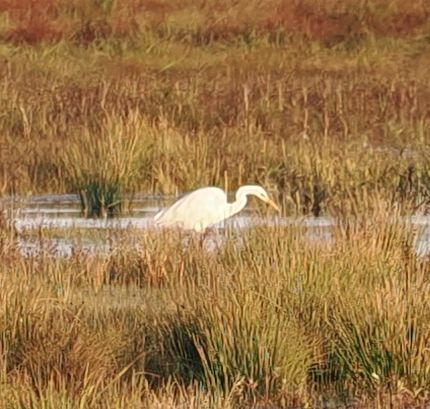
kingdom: Animalia
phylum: Chordata
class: Aves
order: Pelecaniformes
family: Ardeidae
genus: Ardea
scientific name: Ardea alba
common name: Sølvhejre
